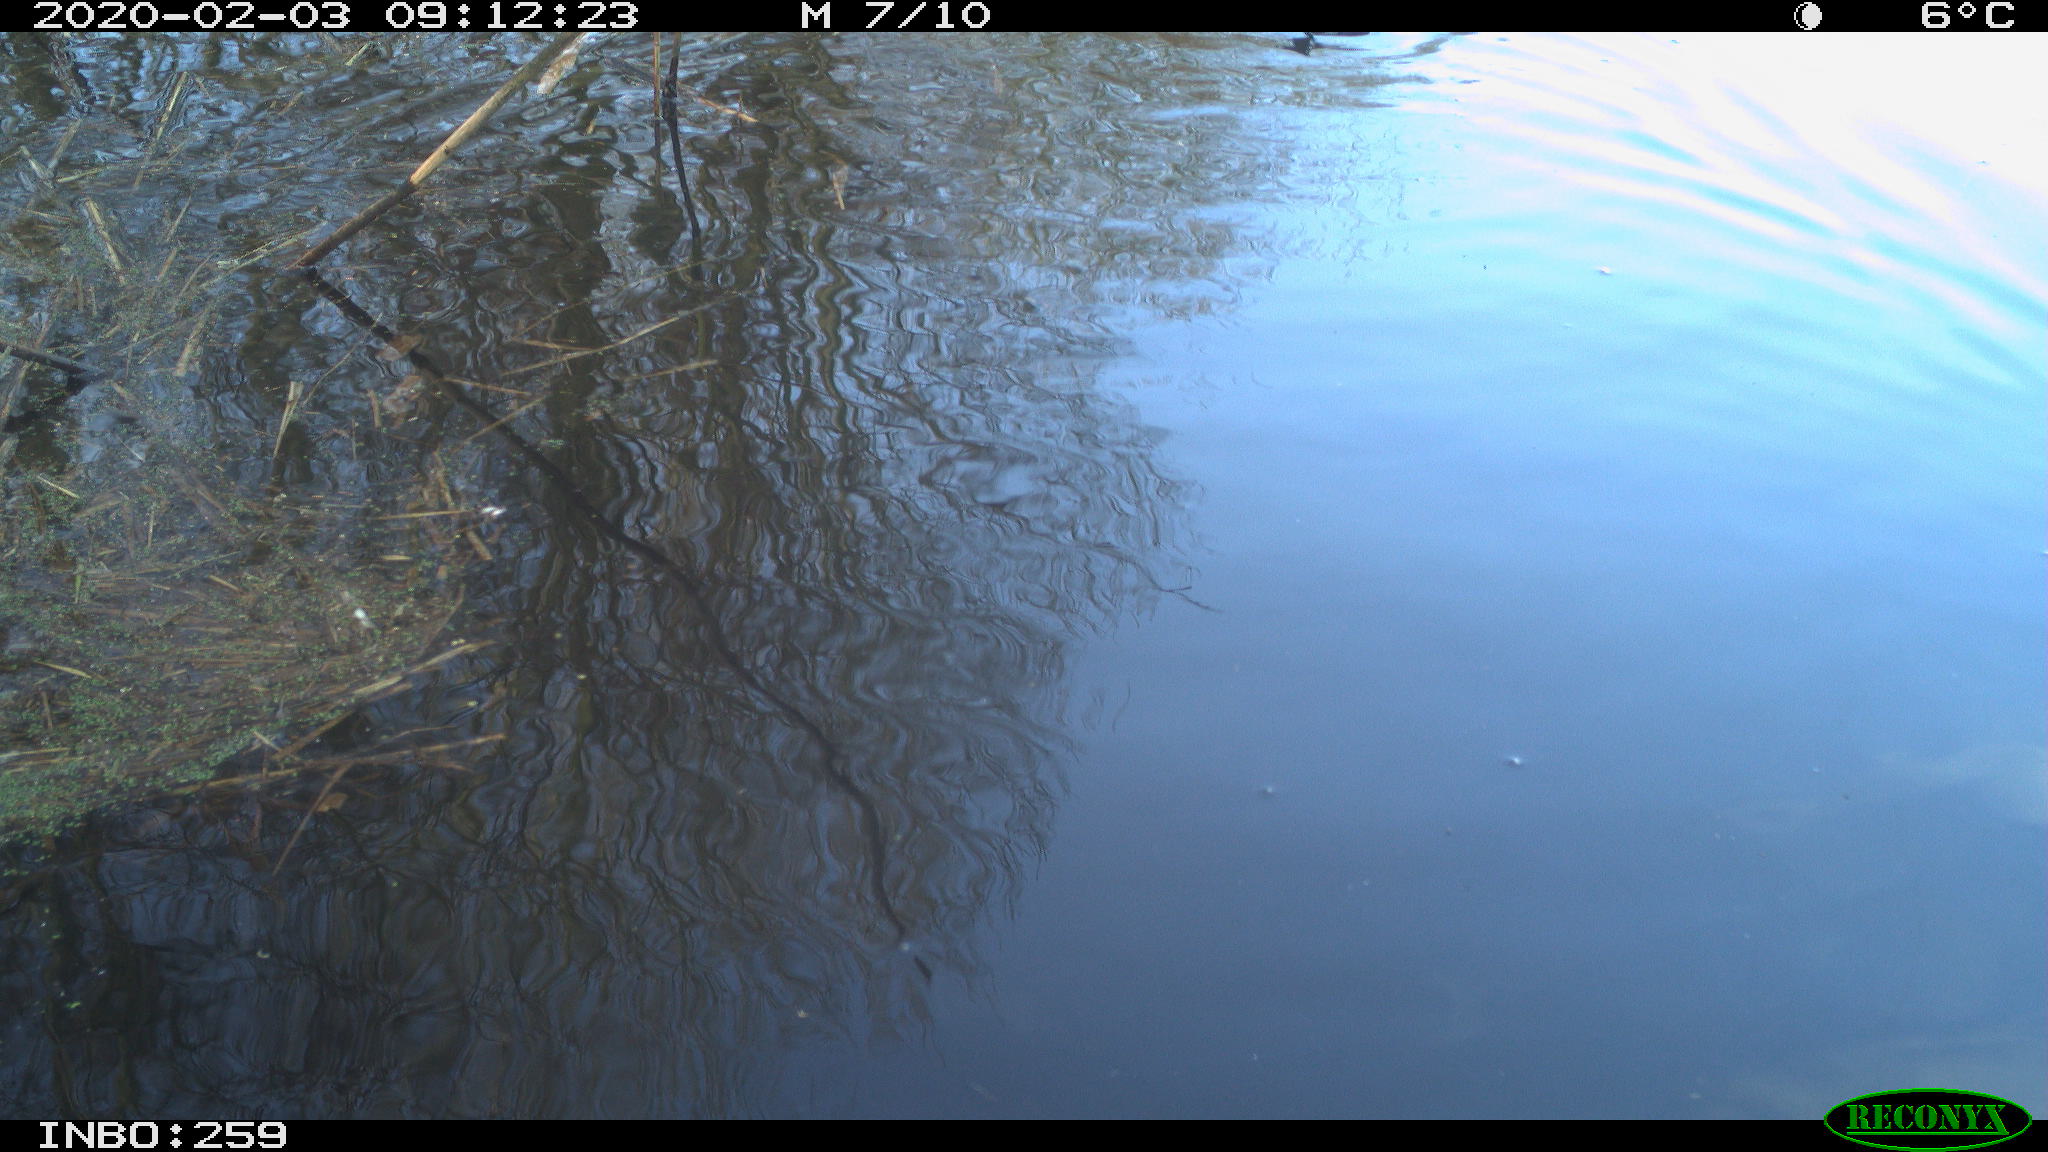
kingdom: Animalia
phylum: Chordata
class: Aves
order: Gruiformes
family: Rallidae
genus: Gallinula
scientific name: Gallinula chloropus
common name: Common moorhen
